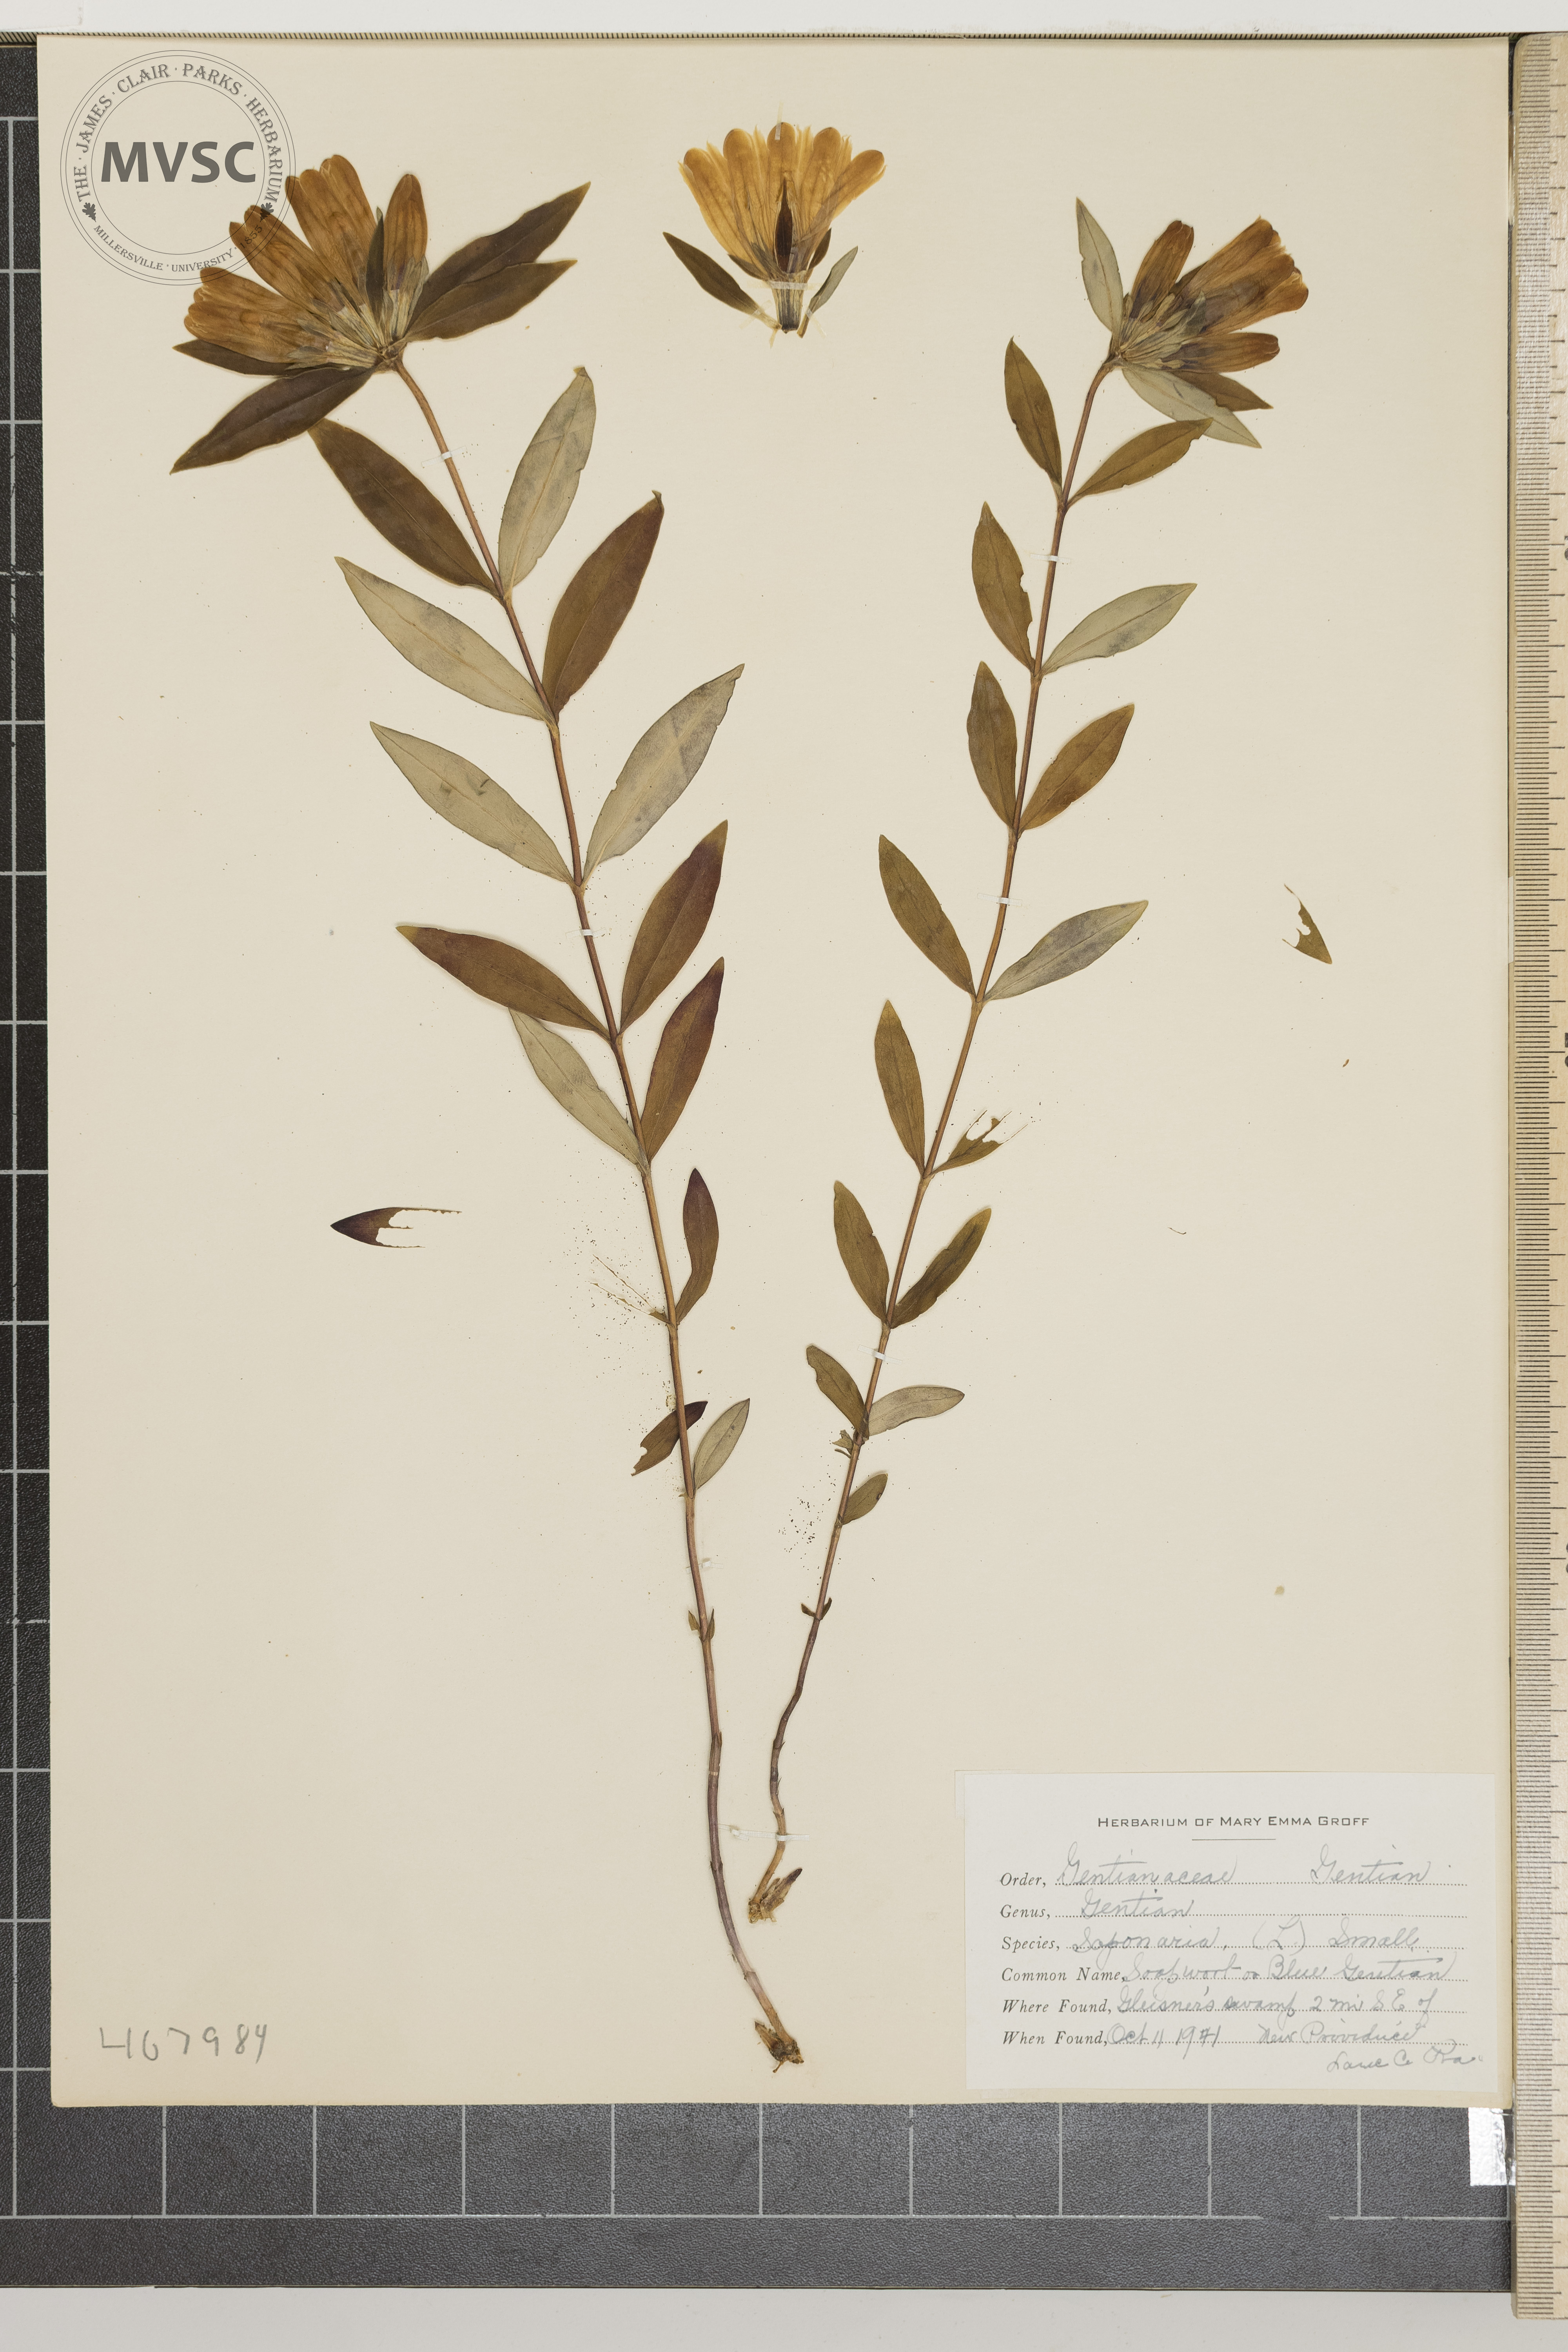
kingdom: Plantae
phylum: Tracheophyta
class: Magnoliopsida
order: Gentianales
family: Gentianaceae
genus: Gentiana
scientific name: Gentiana saponaria
